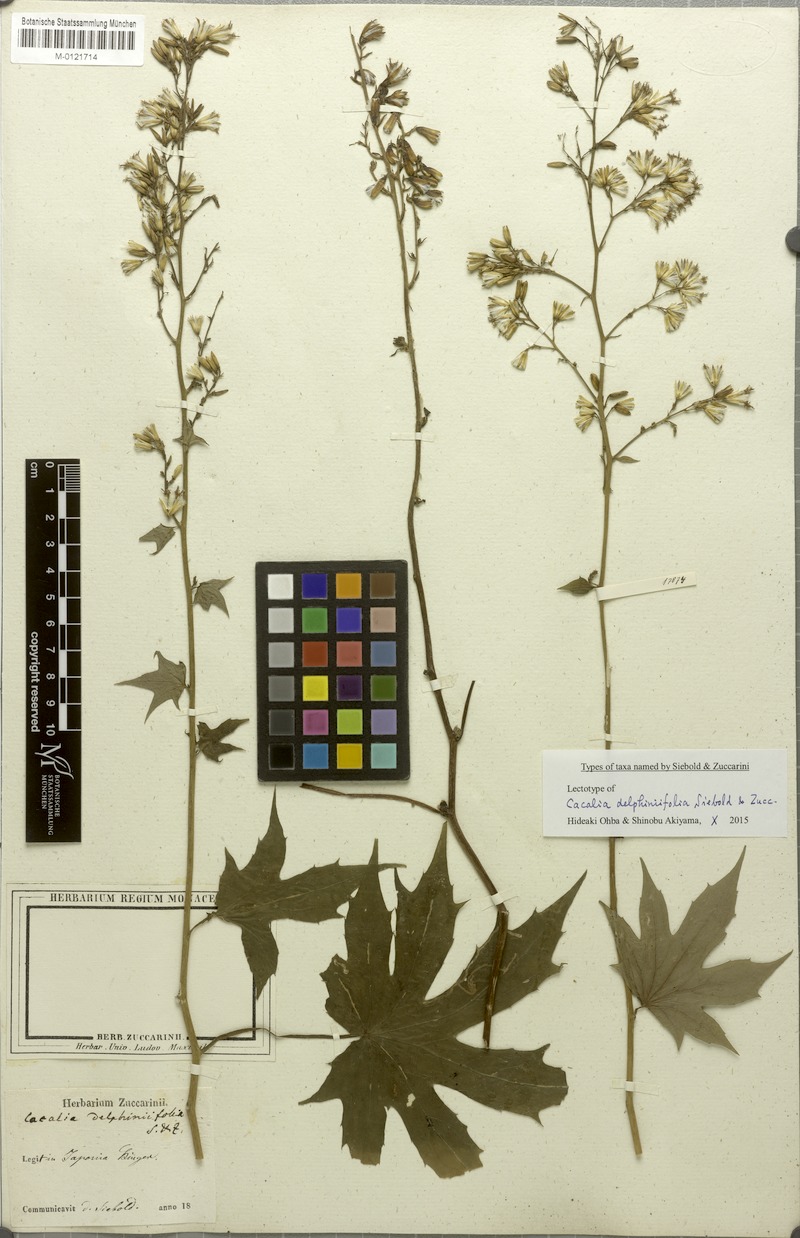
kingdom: Plantae
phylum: Tracheophyta
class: Magnoliopsida
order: Asterales
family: Asteraceae
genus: Japonicalia
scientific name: Japonicalia delphiniifolia
